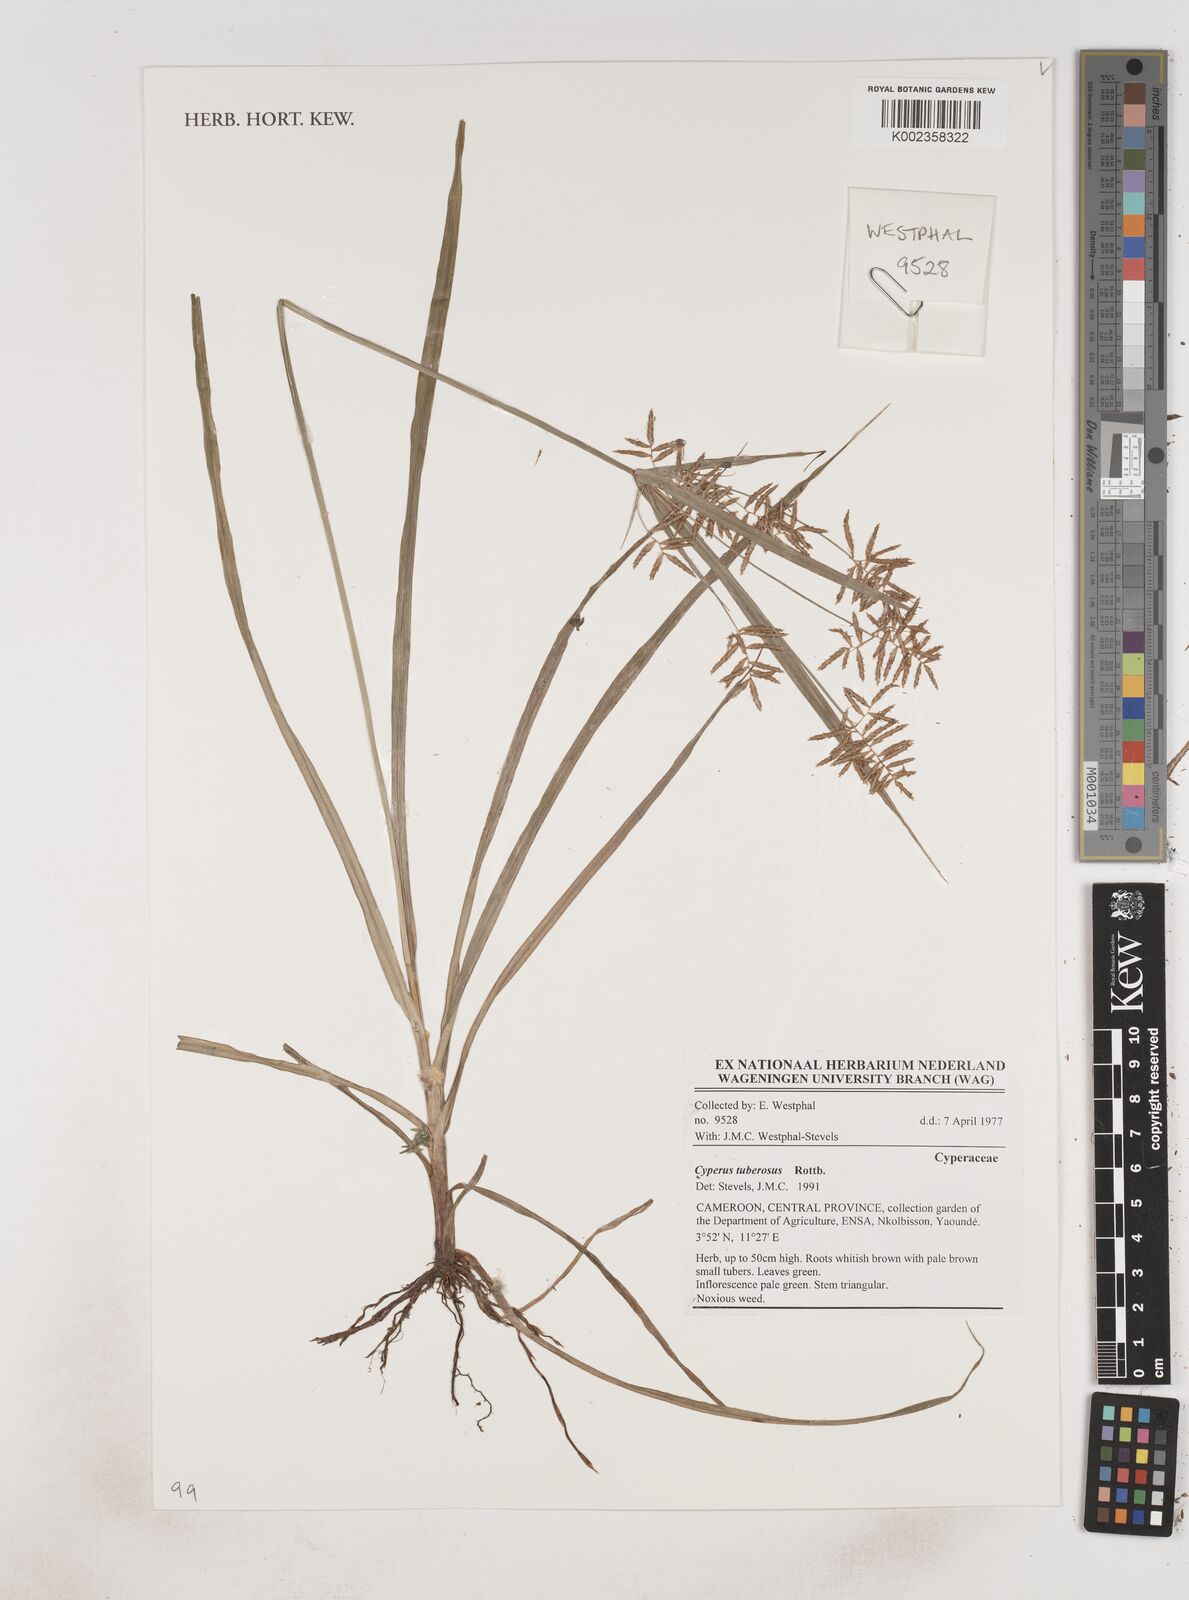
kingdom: Plantae
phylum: Tracheophyta
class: Liliopsida
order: Poales
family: Cyperaceae
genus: Cyperus
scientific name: Cyperus tuberosus
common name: Nut grass
